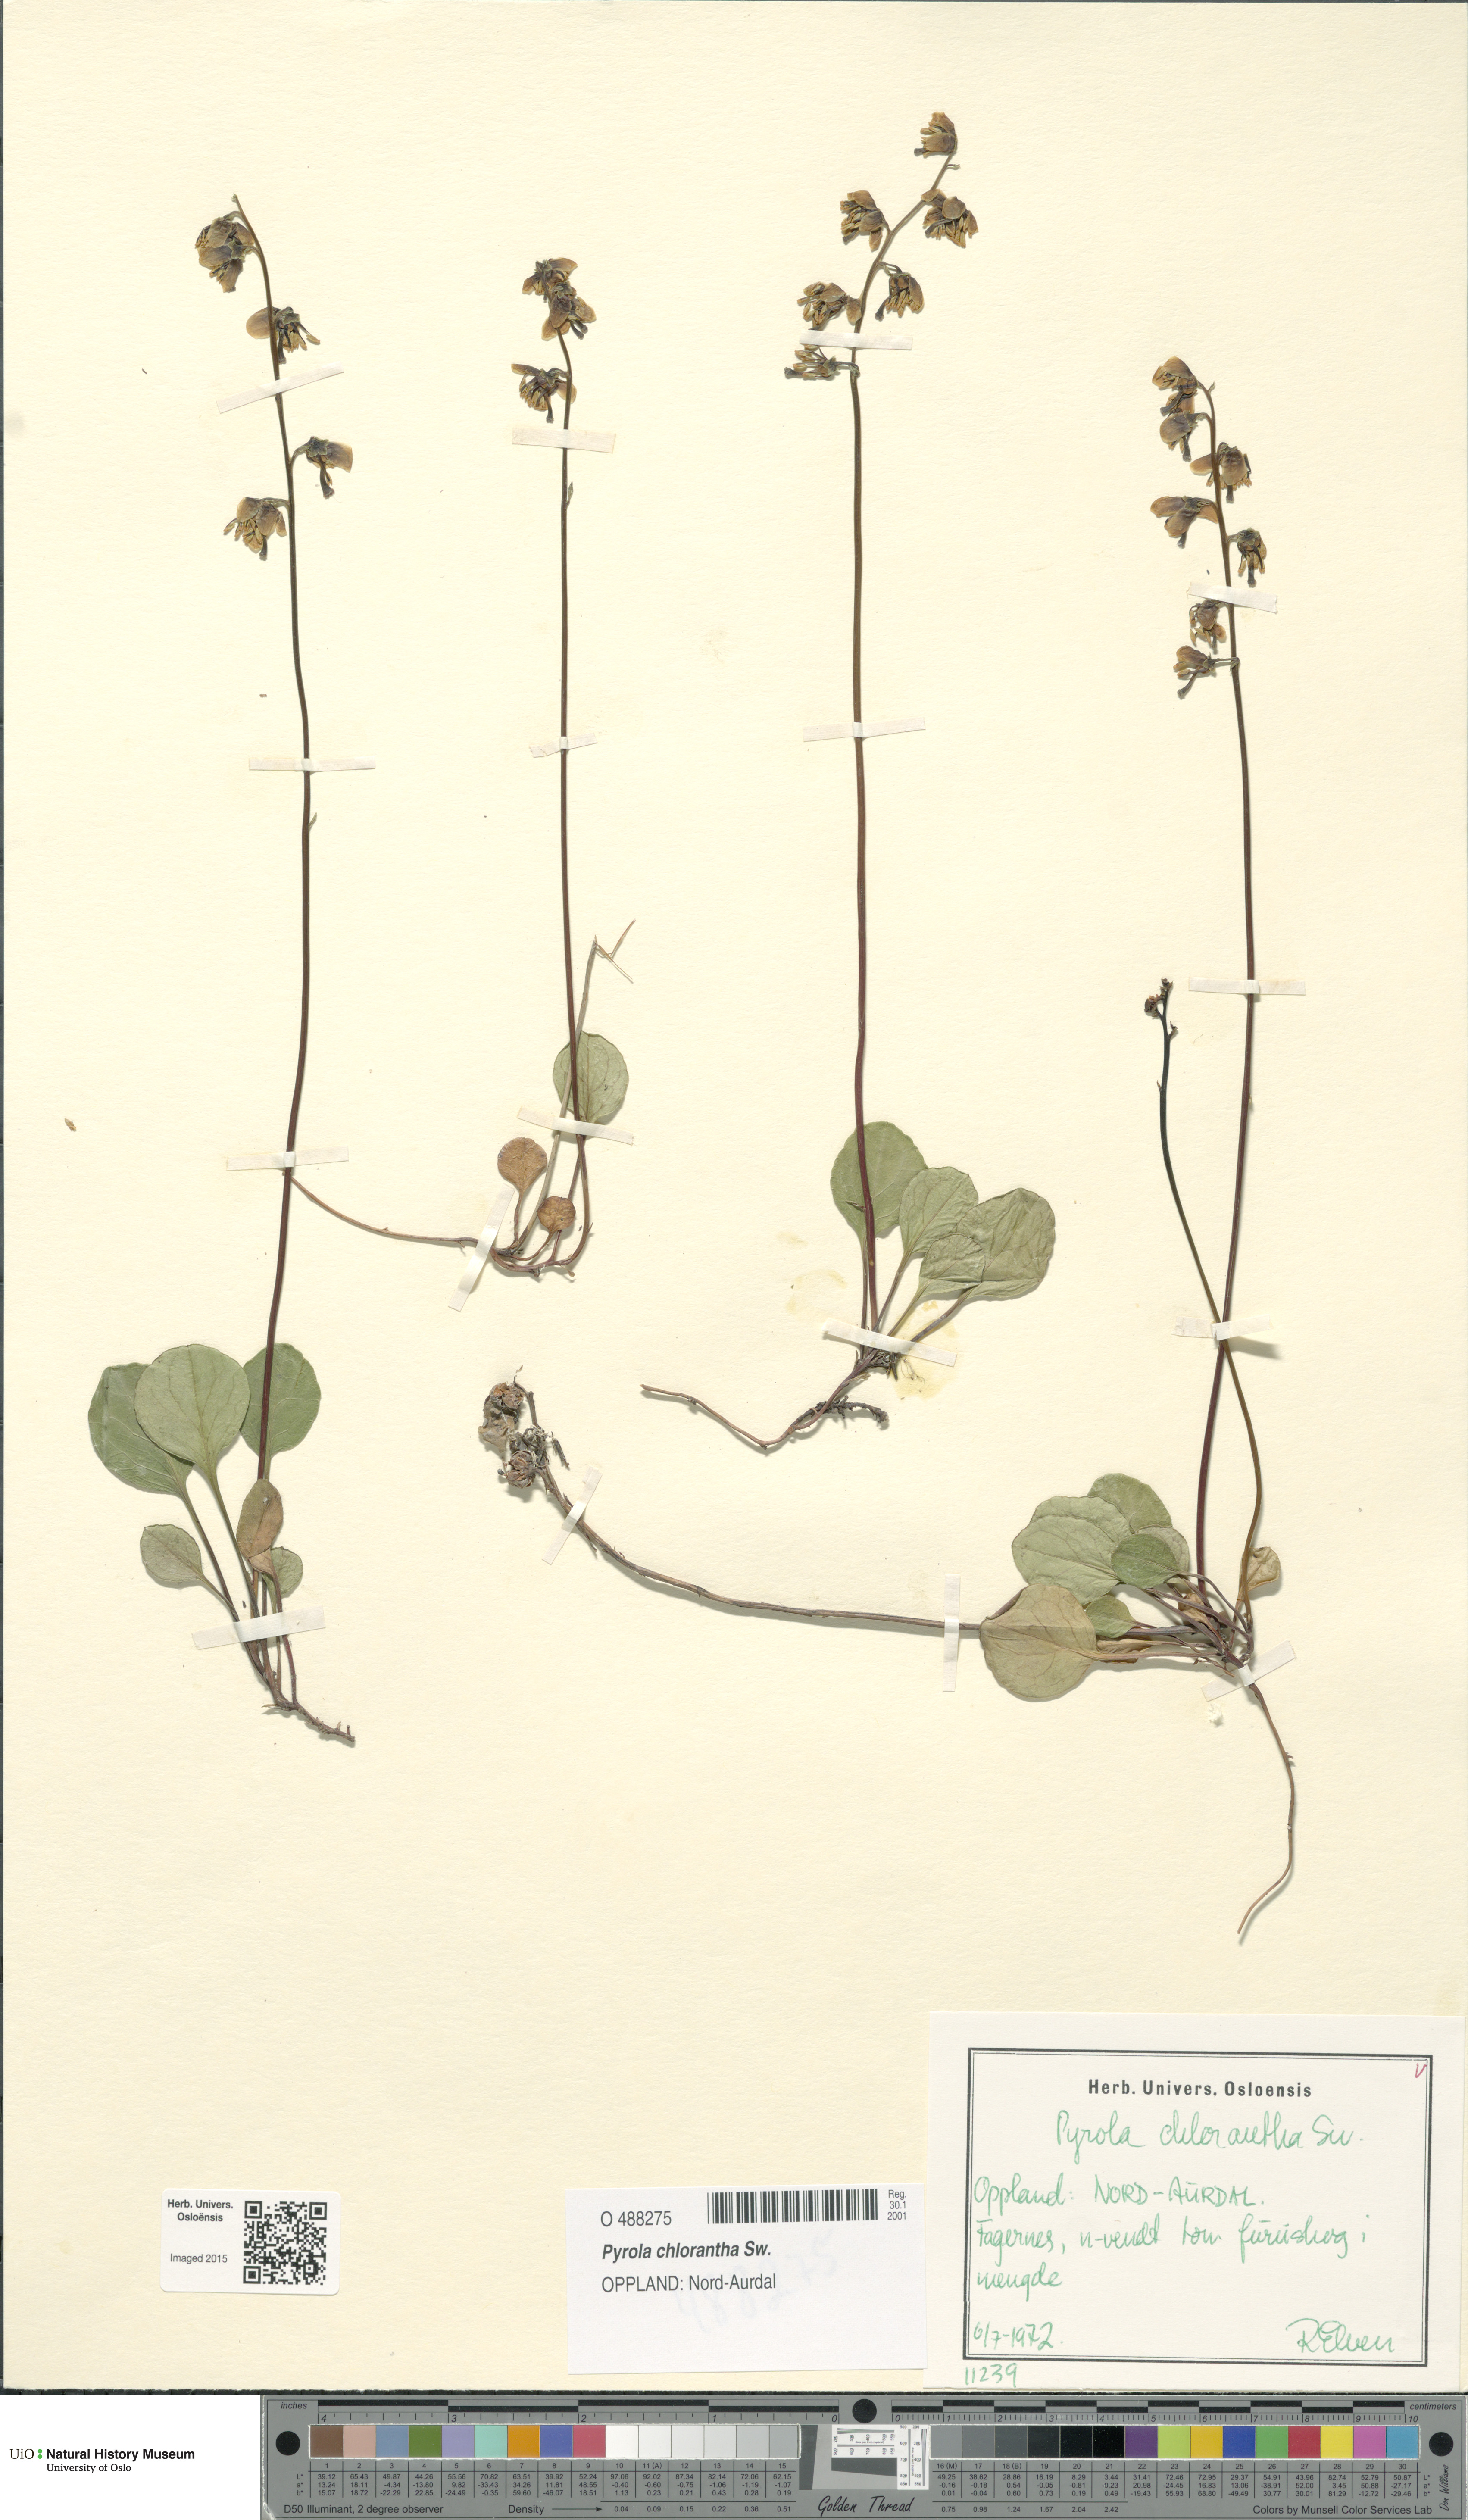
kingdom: Plantae
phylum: Tracheophyta
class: Magnoliopsida
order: Ericales
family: Ericaceae
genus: Pyrola
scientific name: Pyrola chlorantha
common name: Green wintergreen
